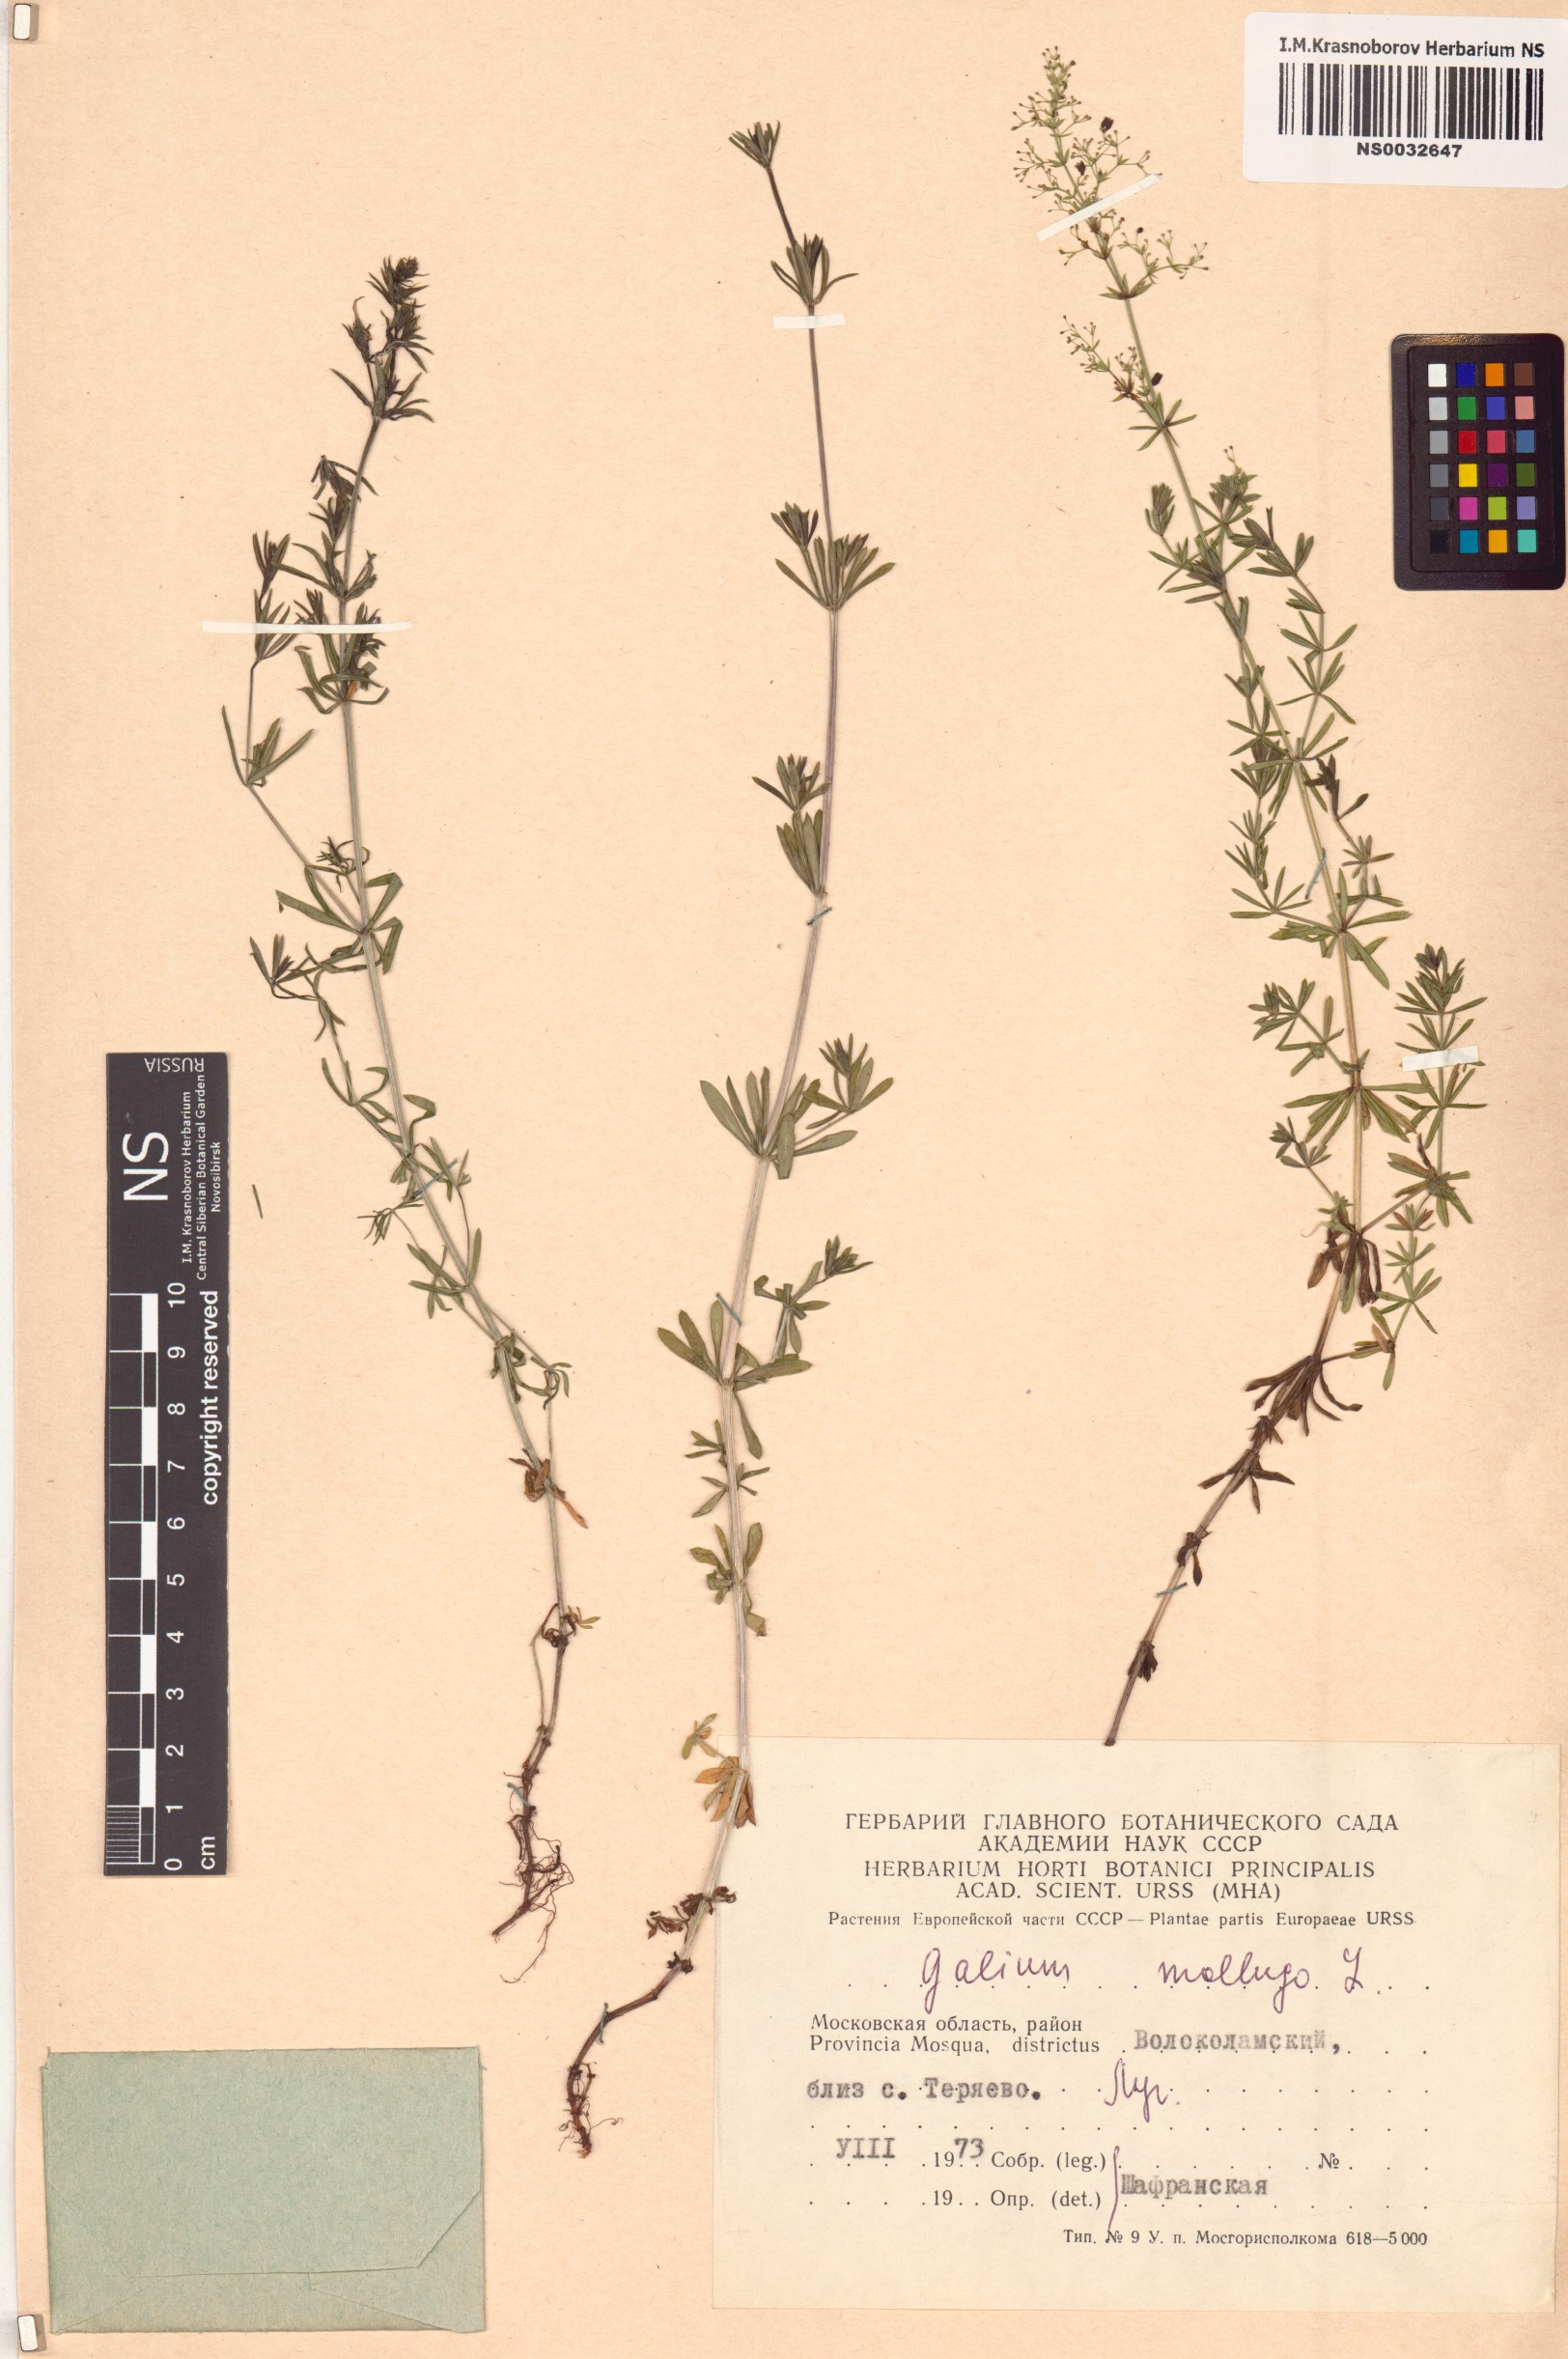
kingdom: Plantae
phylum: Tracheophyta
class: Magnoliopsida
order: Gentianales
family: Rubiaceae
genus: Galium
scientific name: Galium mollugo
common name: Hedge bedstraw
